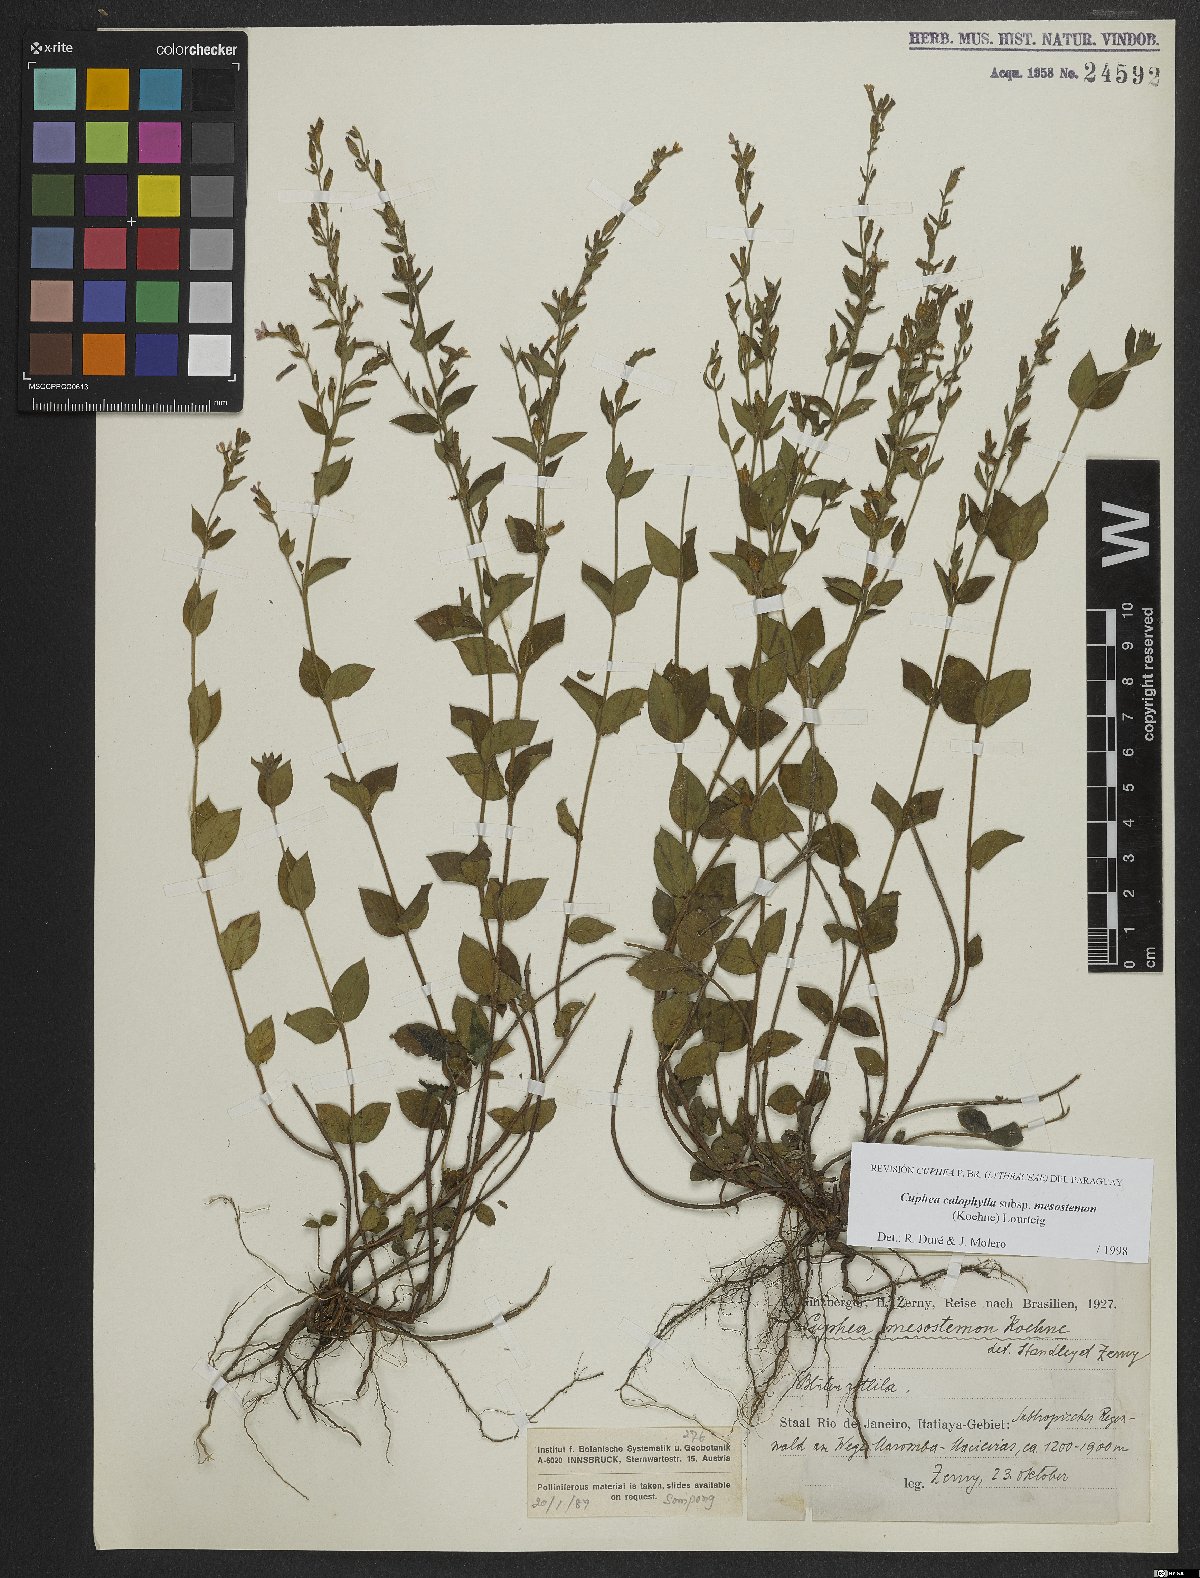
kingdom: Plantae
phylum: Tracheophyta
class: Magnoliopsida
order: Myrtales
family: Lythraceae
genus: Cuphea
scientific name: Cuphea calophylla
